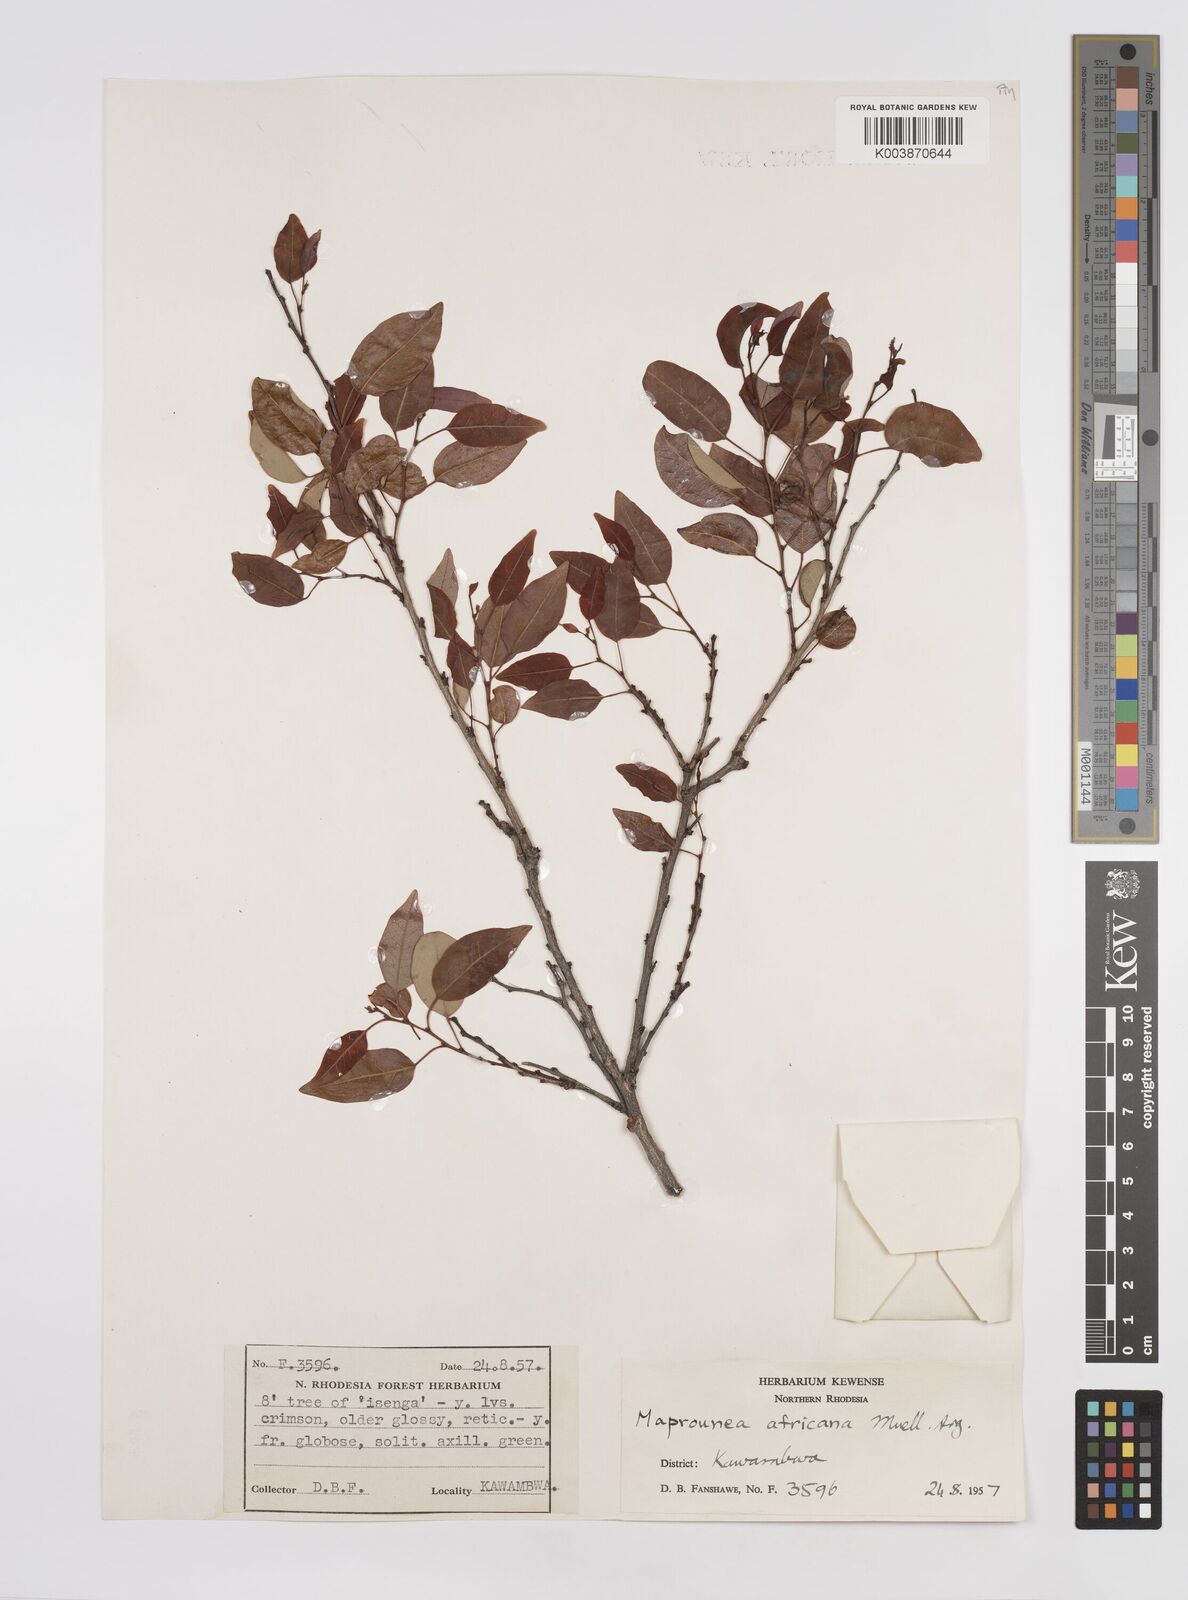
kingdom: Plantae
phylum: Tracheophyta
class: Magnoliopsida
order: Malpighiales
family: Euphorbiaceae
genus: Maprounea
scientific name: Maprounea africana
